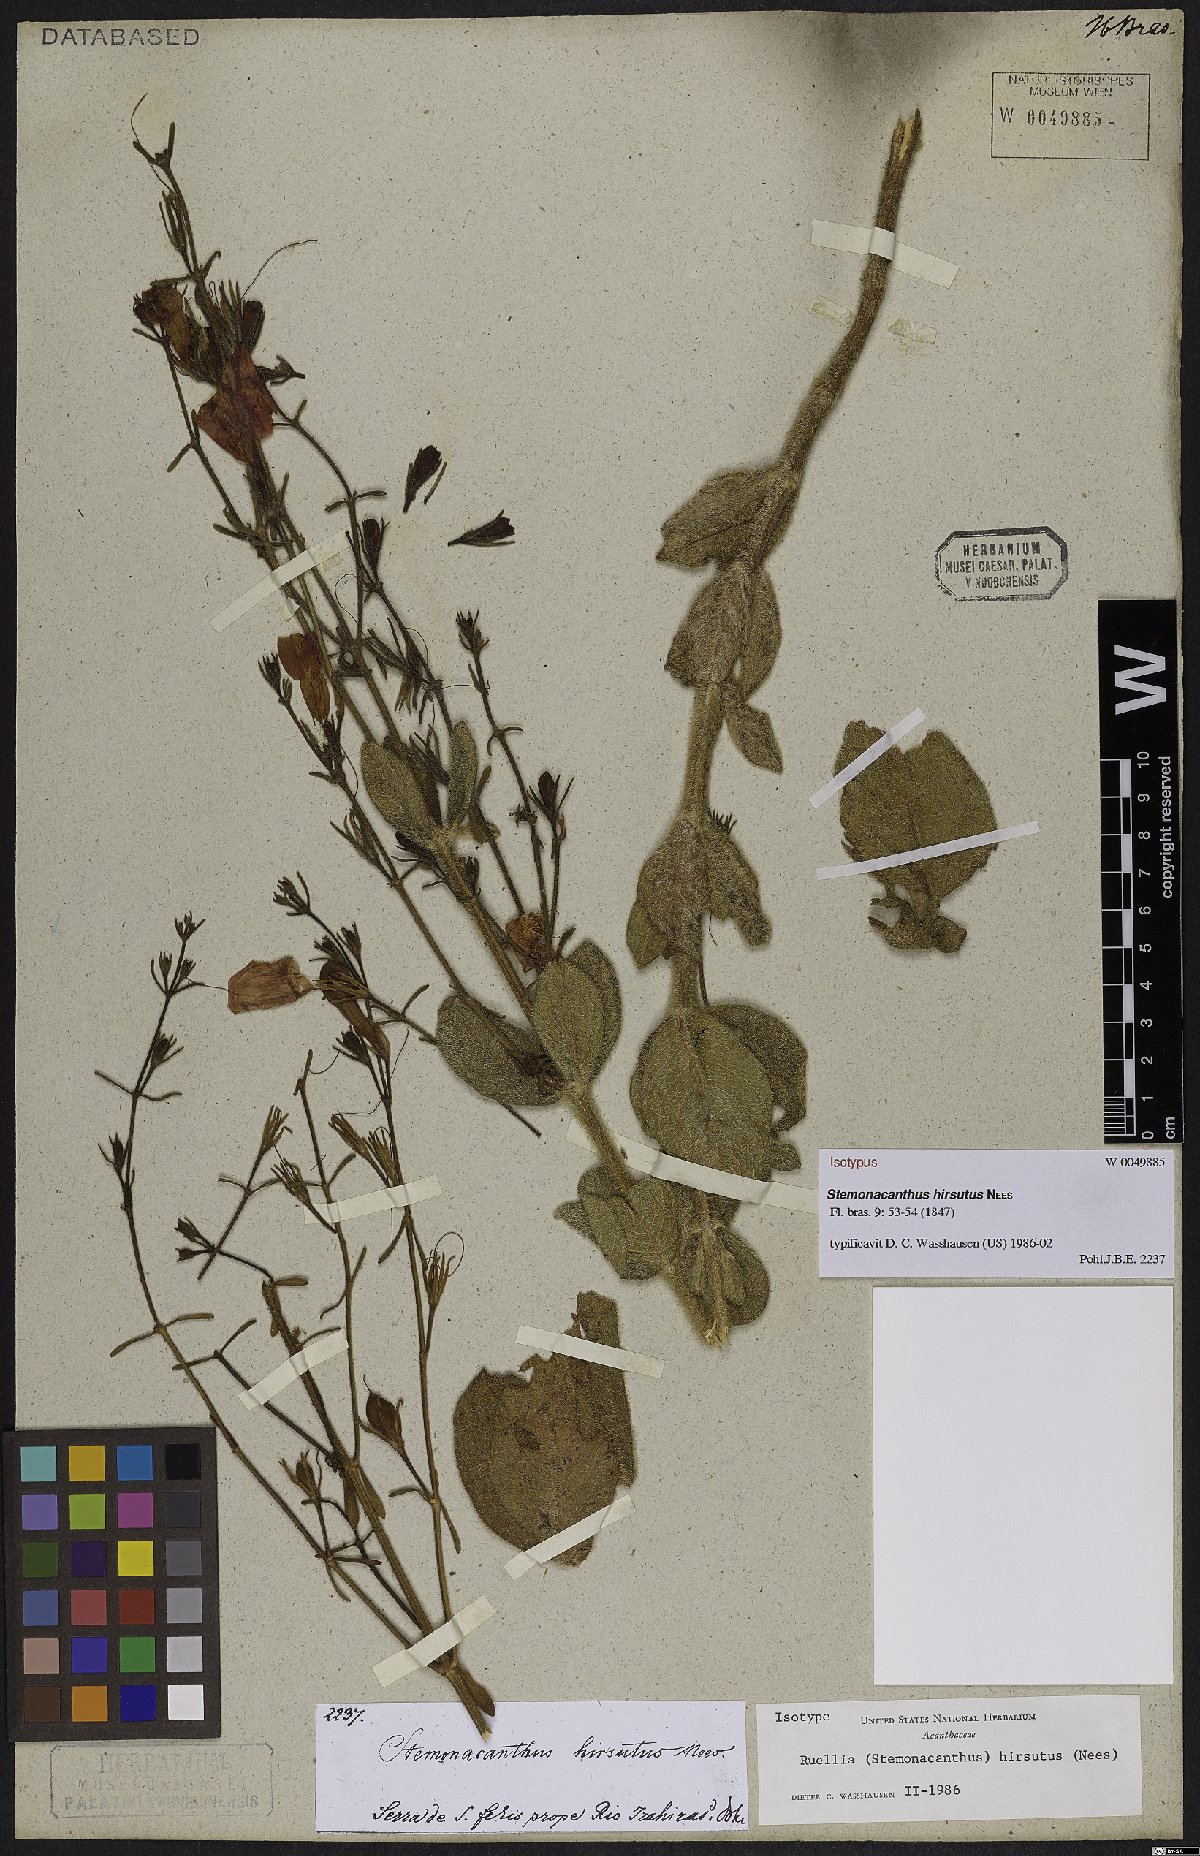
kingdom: Plantae
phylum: Tracheophyta
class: Magnoliopsida
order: Lamiales
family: Acanthaceae
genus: Ruellia
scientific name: Ruellia Stemonacanthus hirsutus
